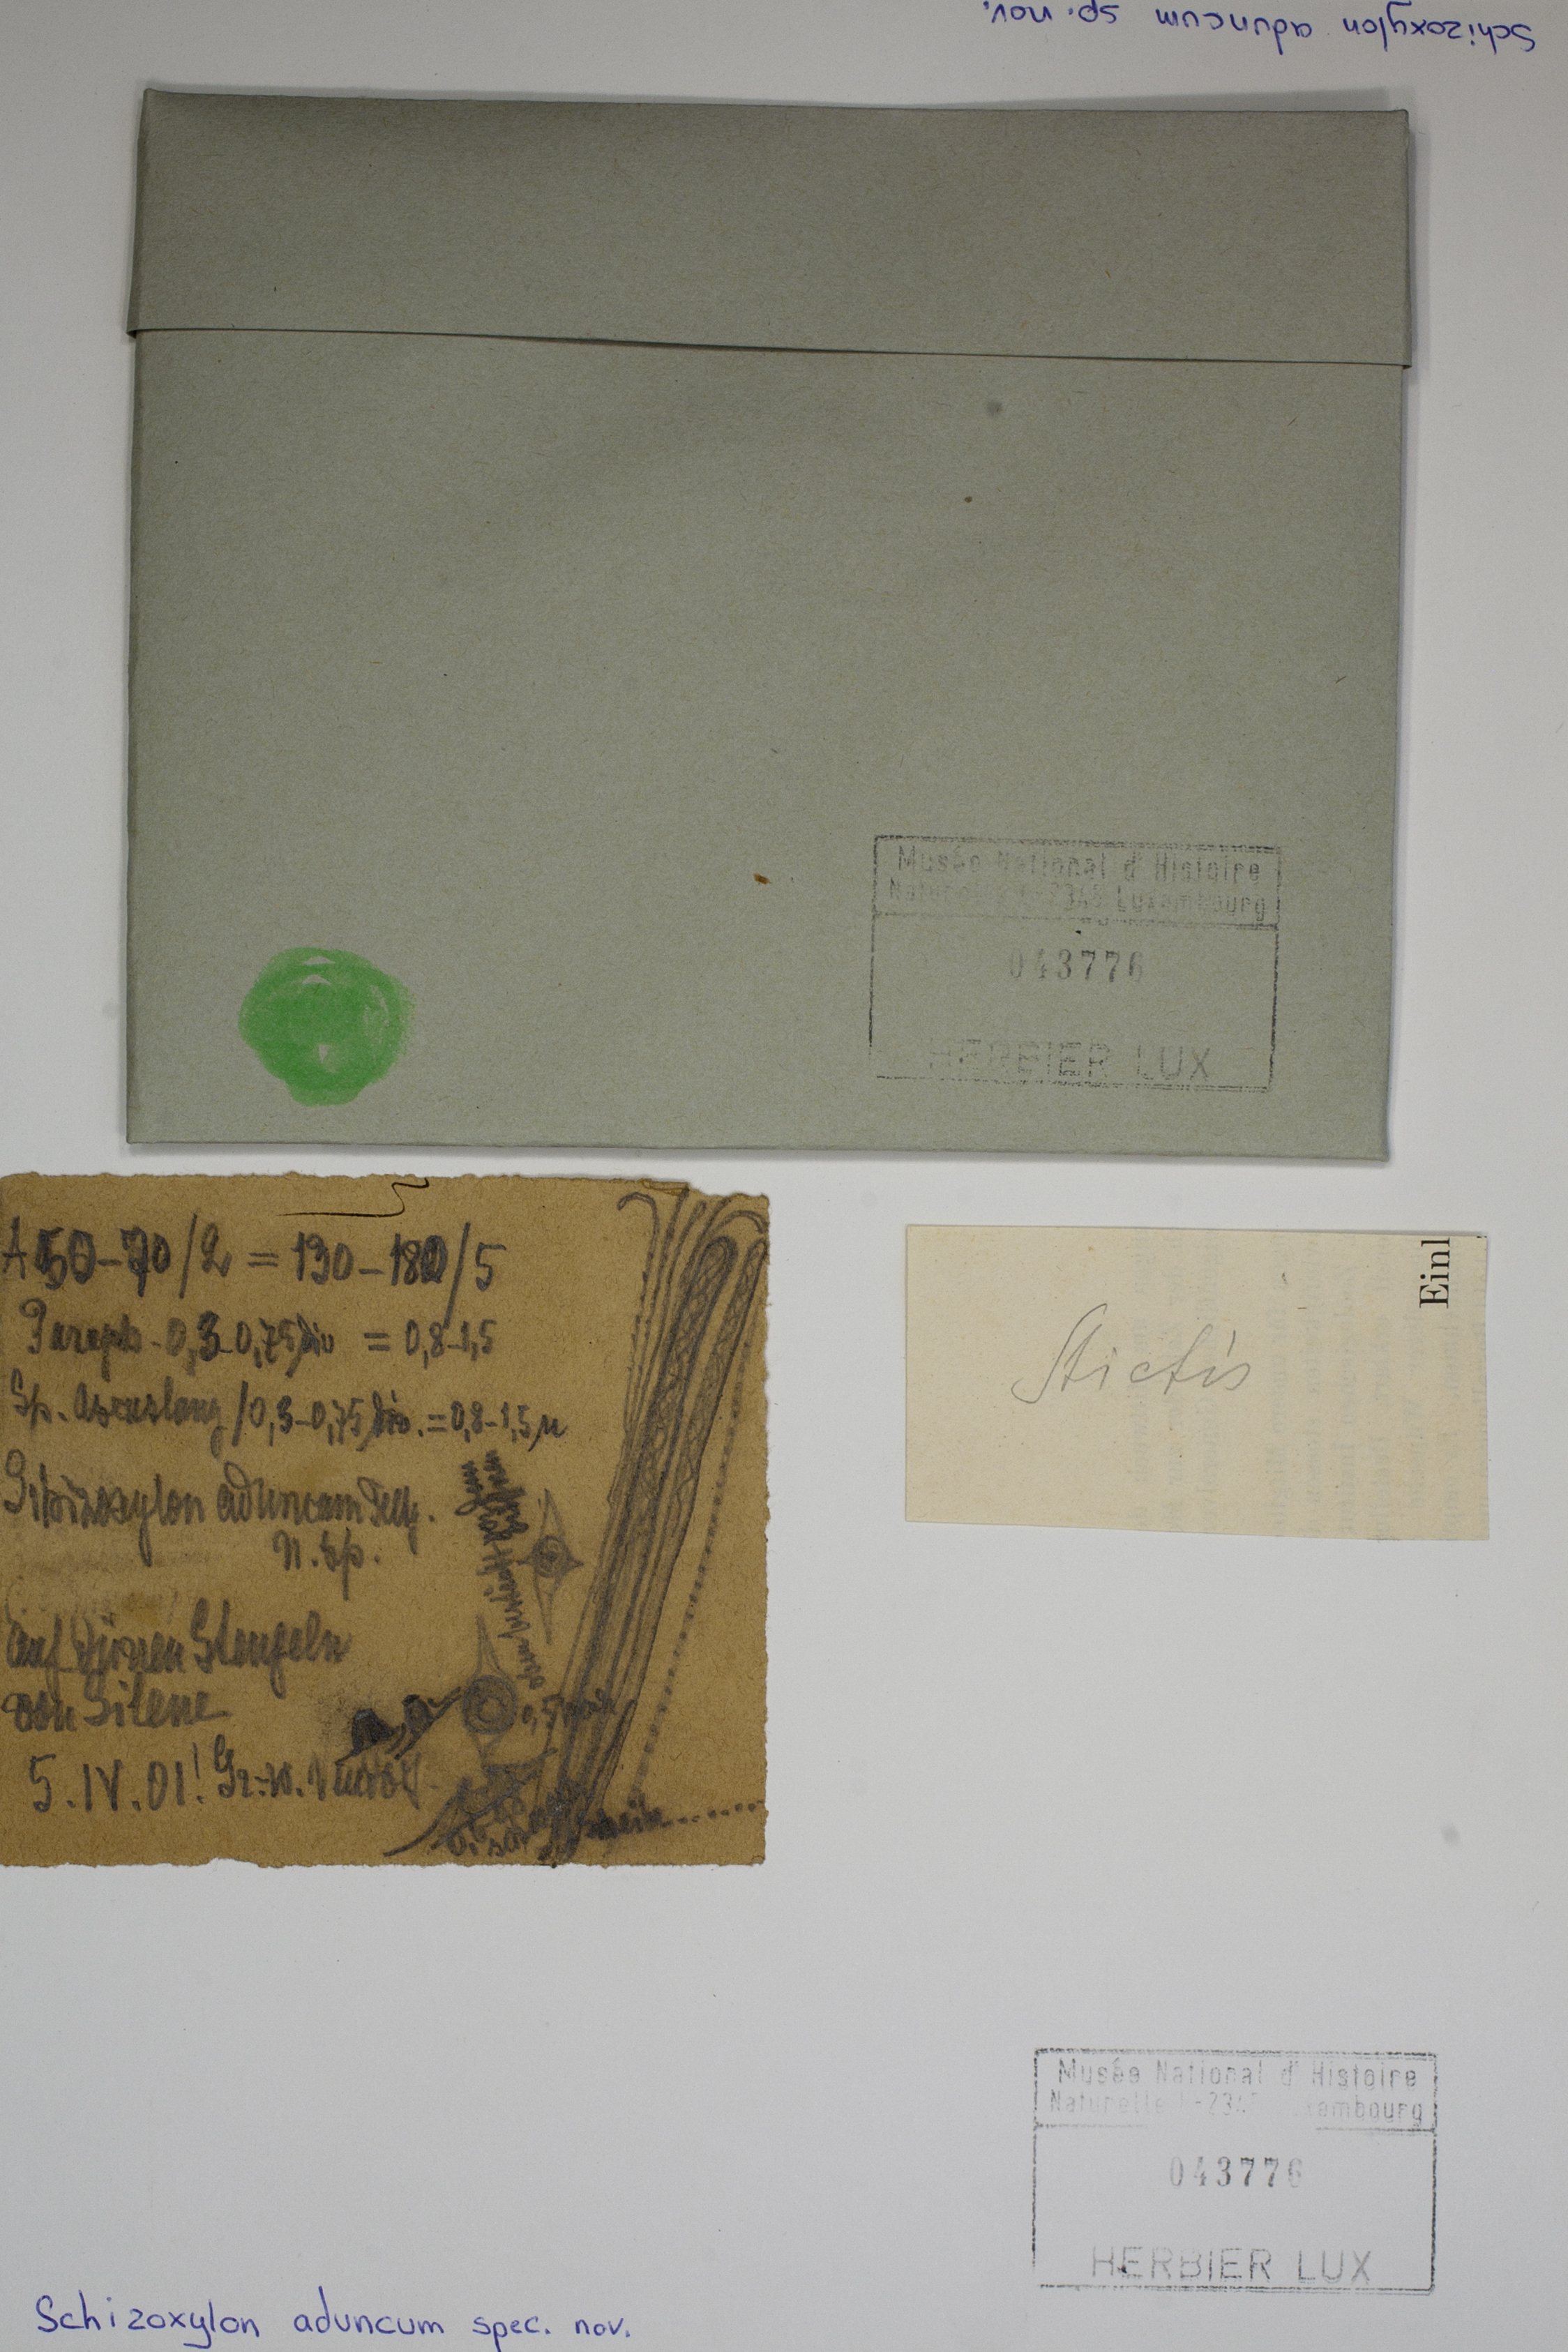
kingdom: Fungi
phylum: Ascomycota
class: Lecanoromycetes
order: Ostropales
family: Stictidaceae
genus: Stictis
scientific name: Stictis polycocca
